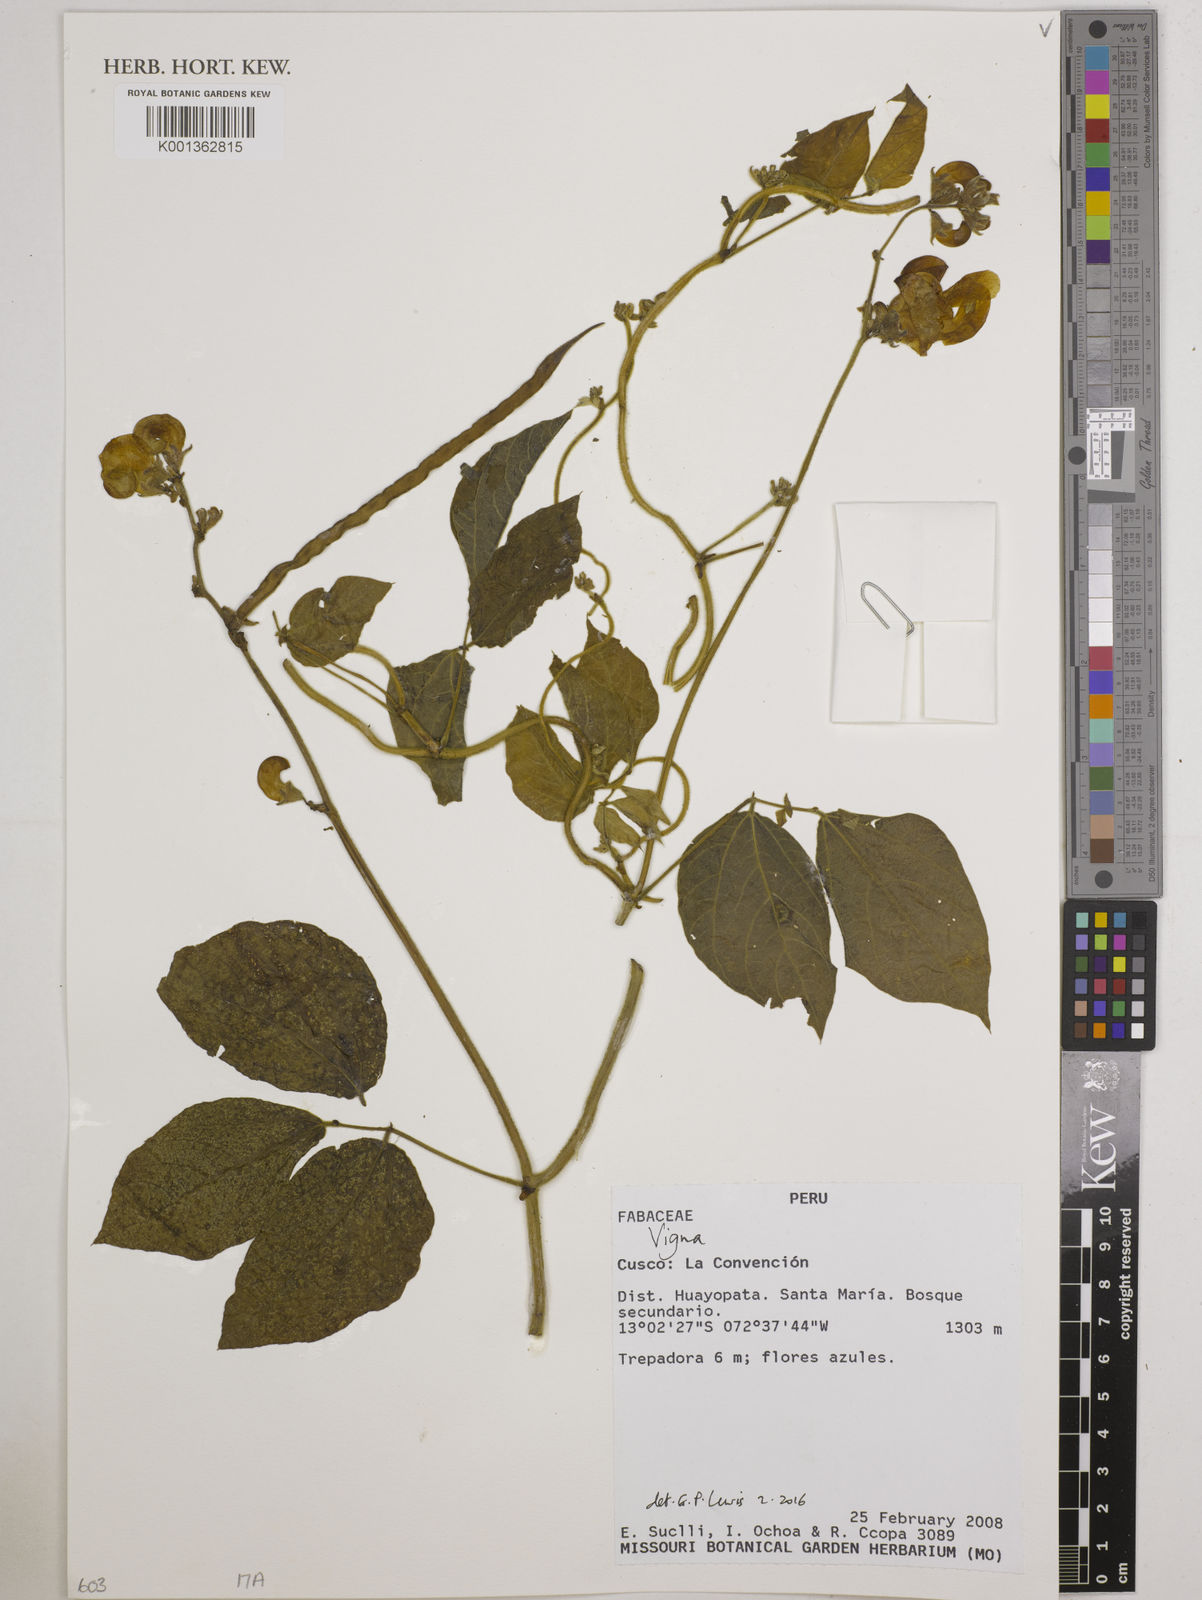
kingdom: Plantae
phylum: Tracheophyta
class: Magnoliopsida
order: Fabales
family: Fabaceae
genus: Vigna
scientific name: Vigna
